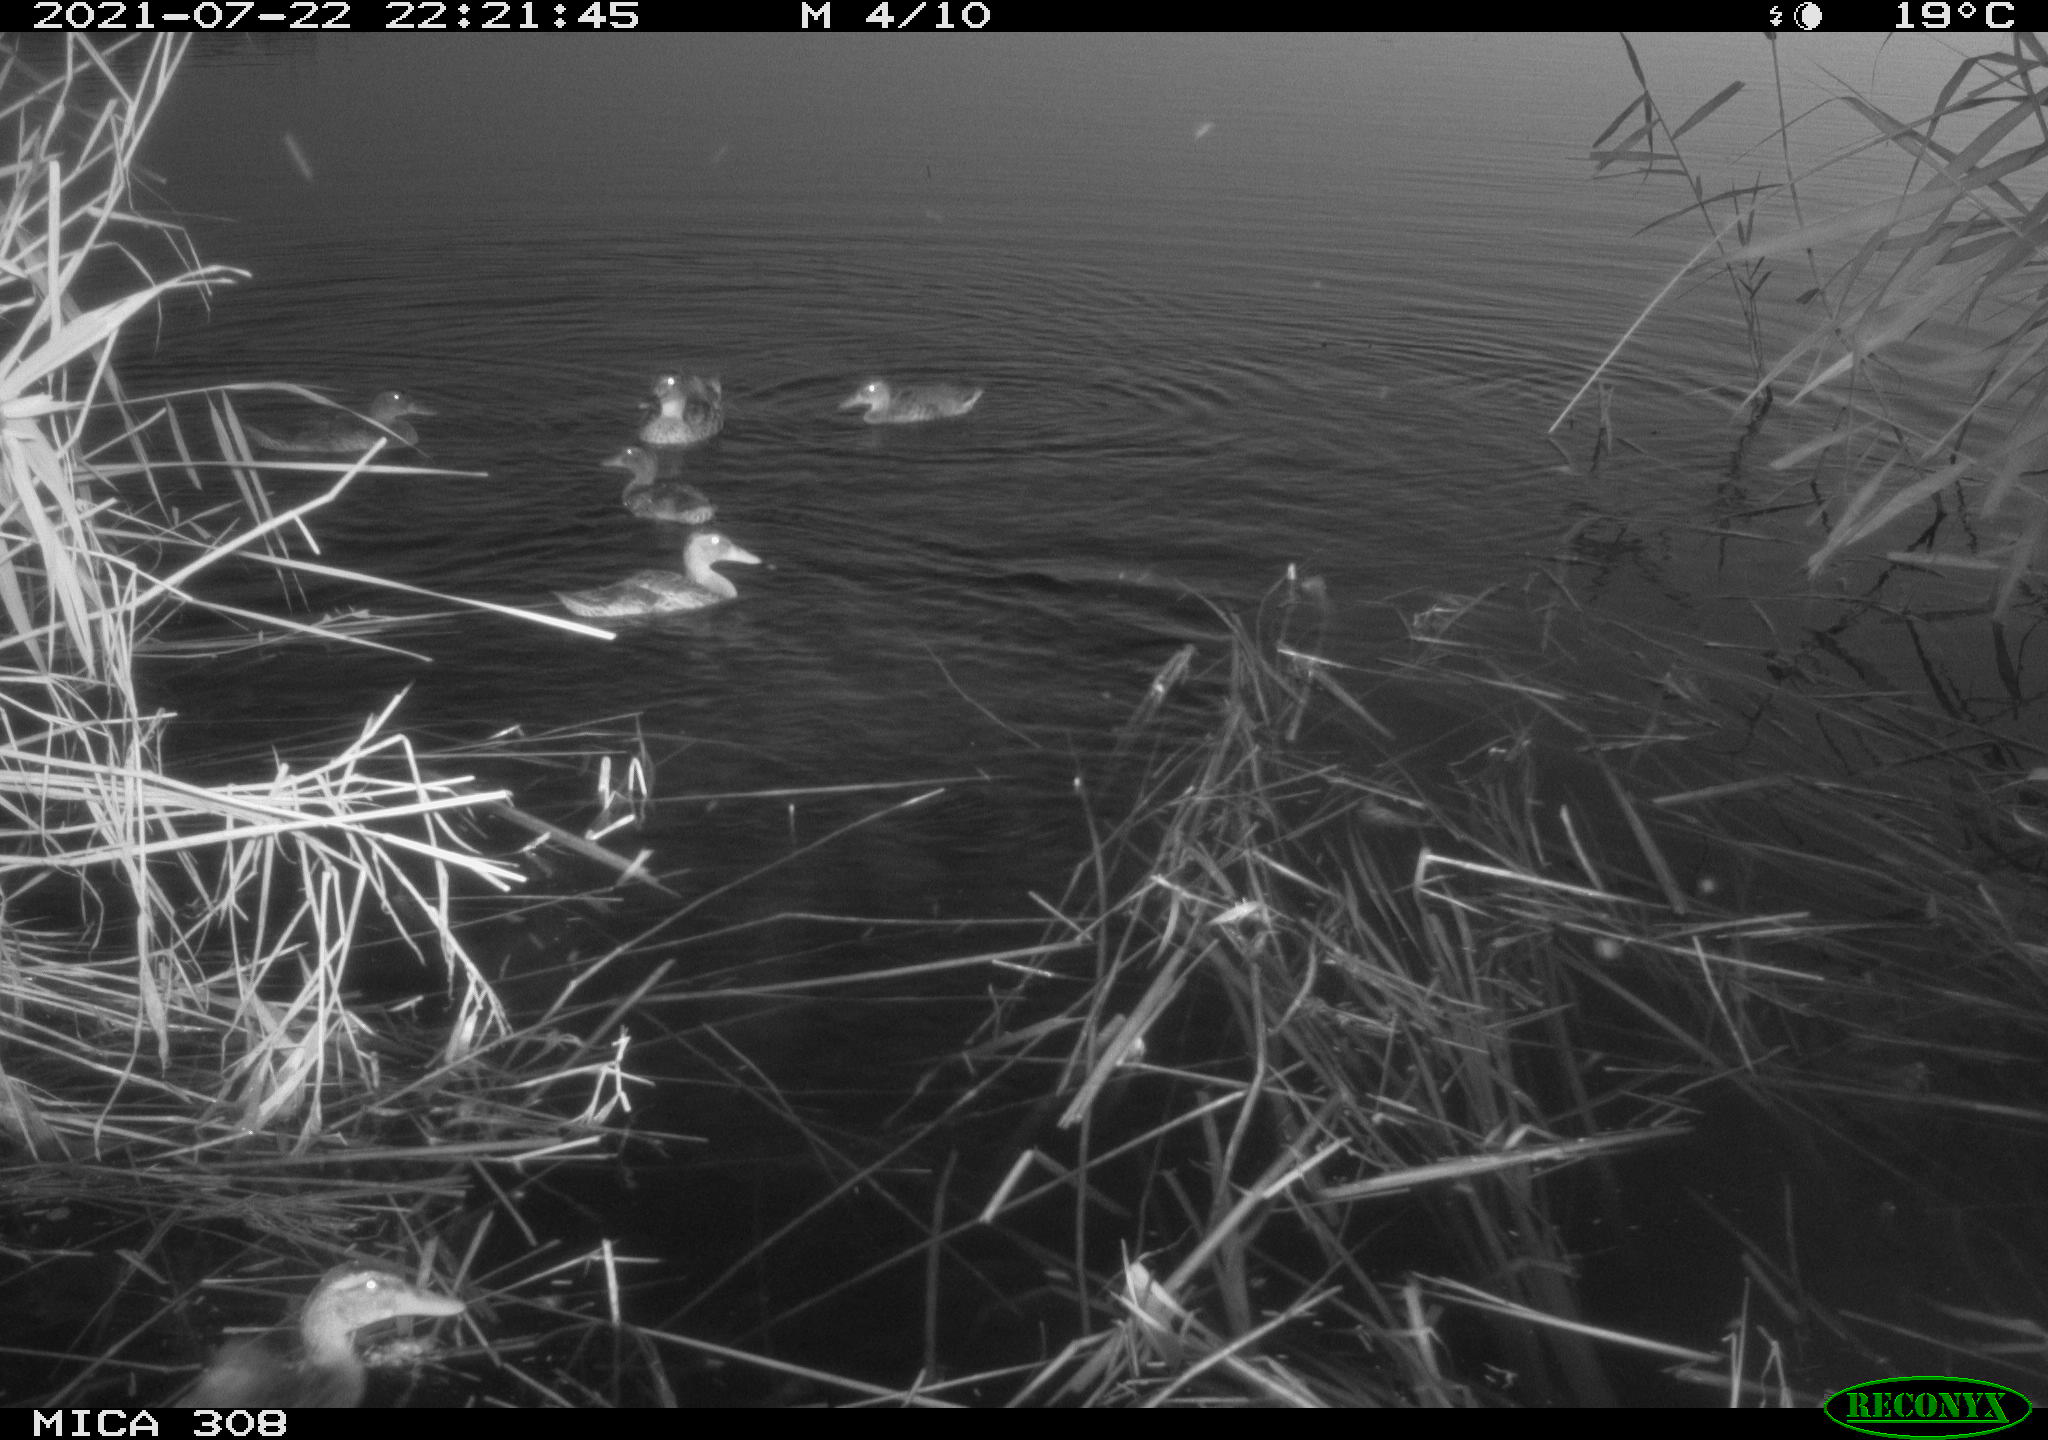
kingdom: Animalia
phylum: Chordata
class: Aves
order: Anseriformes
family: Anatidae
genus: Anas
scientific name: Anas platyrhynchos
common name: Mallard
